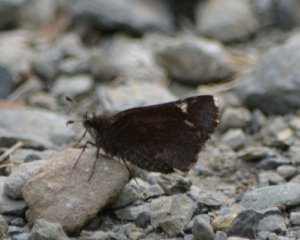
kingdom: Animalia
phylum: Arthropoda
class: Insecta
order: Lepidoptera
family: Hesperiidae
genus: Mastor
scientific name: Mastor vialis
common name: Common Roadside-Skipper
